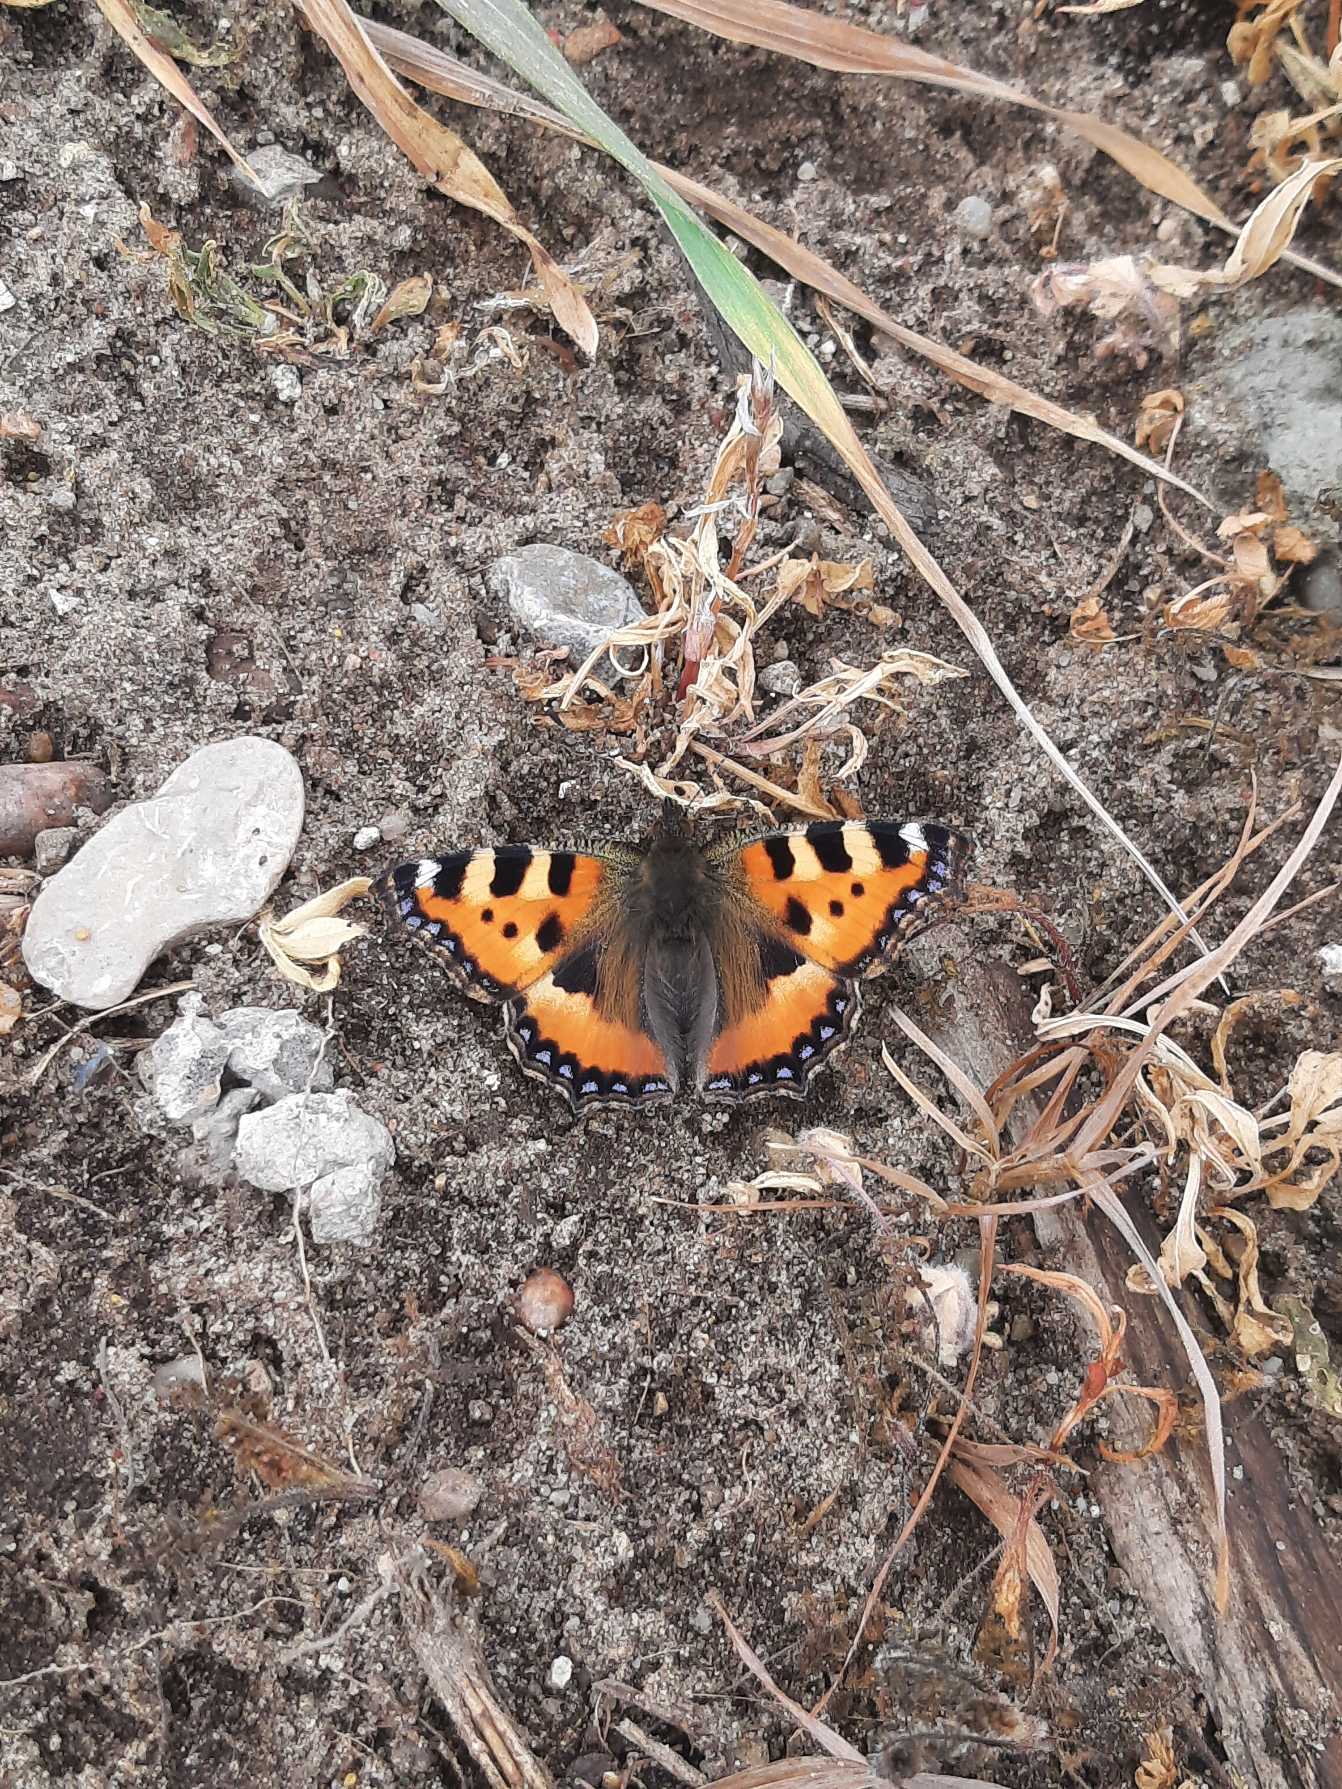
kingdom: Animalia
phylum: Arthropoda
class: Insecta
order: Lepidoptera
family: Nymphalidae
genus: Aglais
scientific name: Aglais urticae
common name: Nældens takvinge
